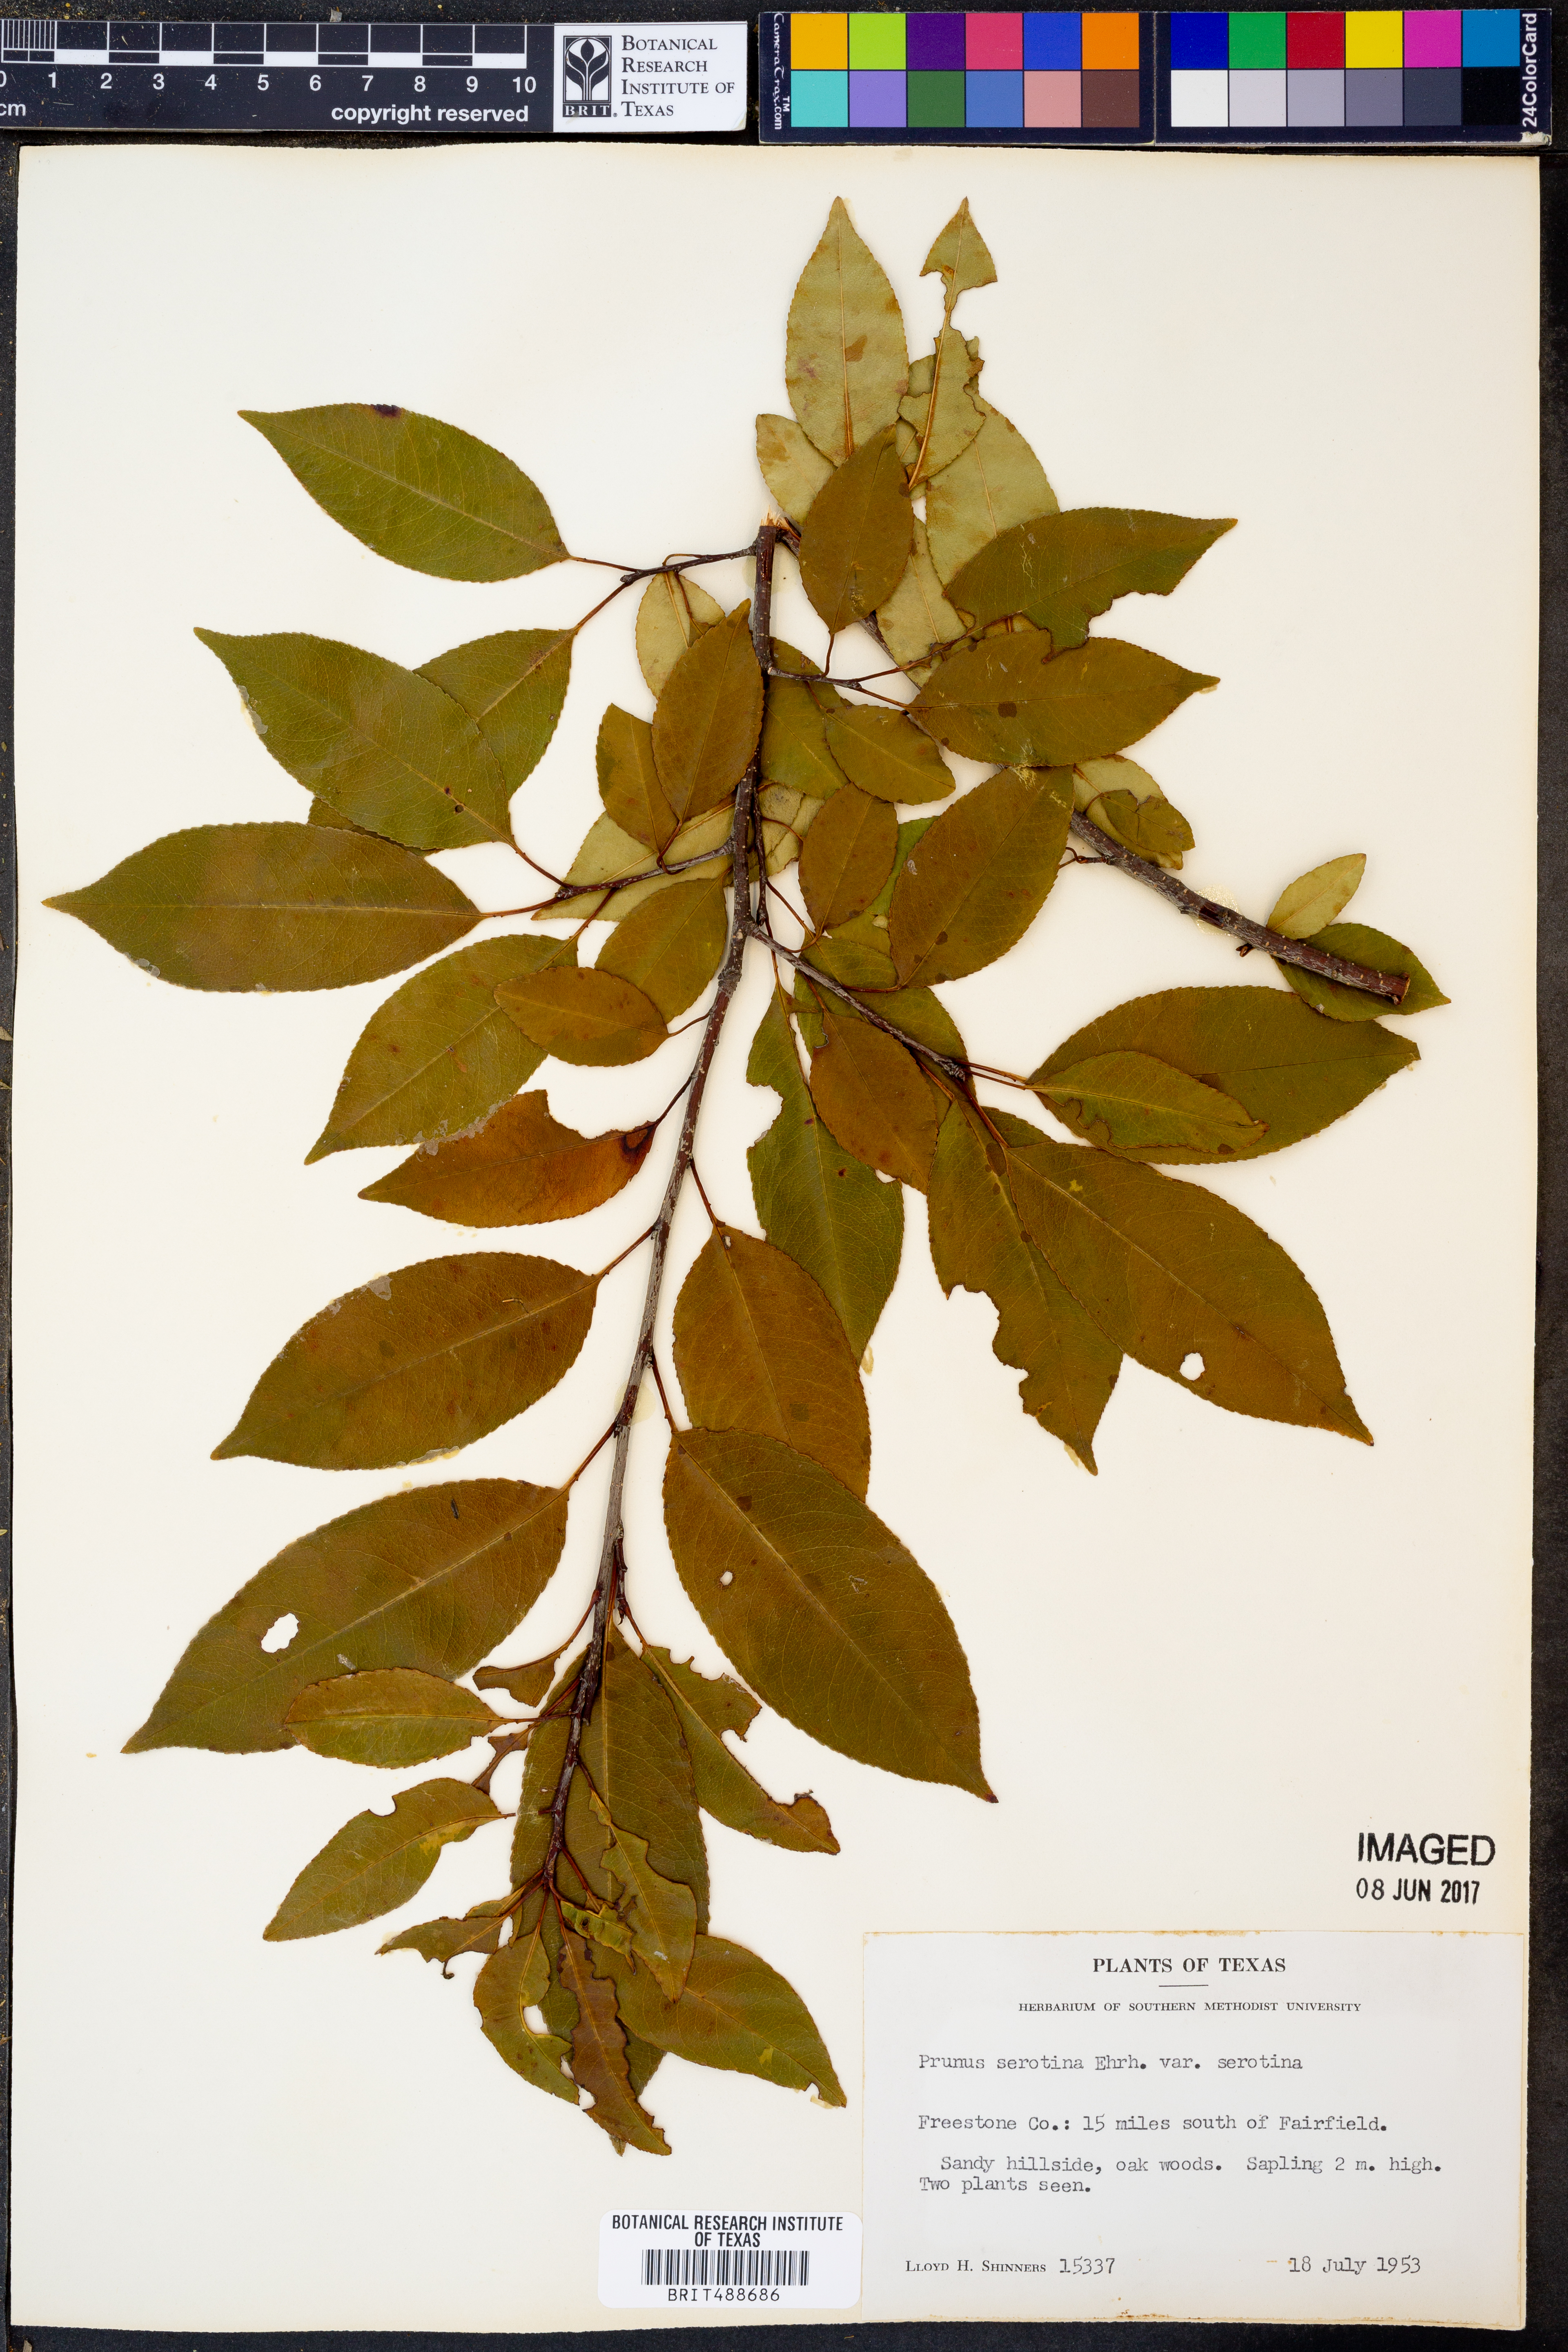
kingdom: Plantae
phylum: Tracheophyta
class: Magnoliopsida
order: Rosales
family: Rosaceae
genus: Prunus
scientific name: Prunus serotina
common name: Black cherry
